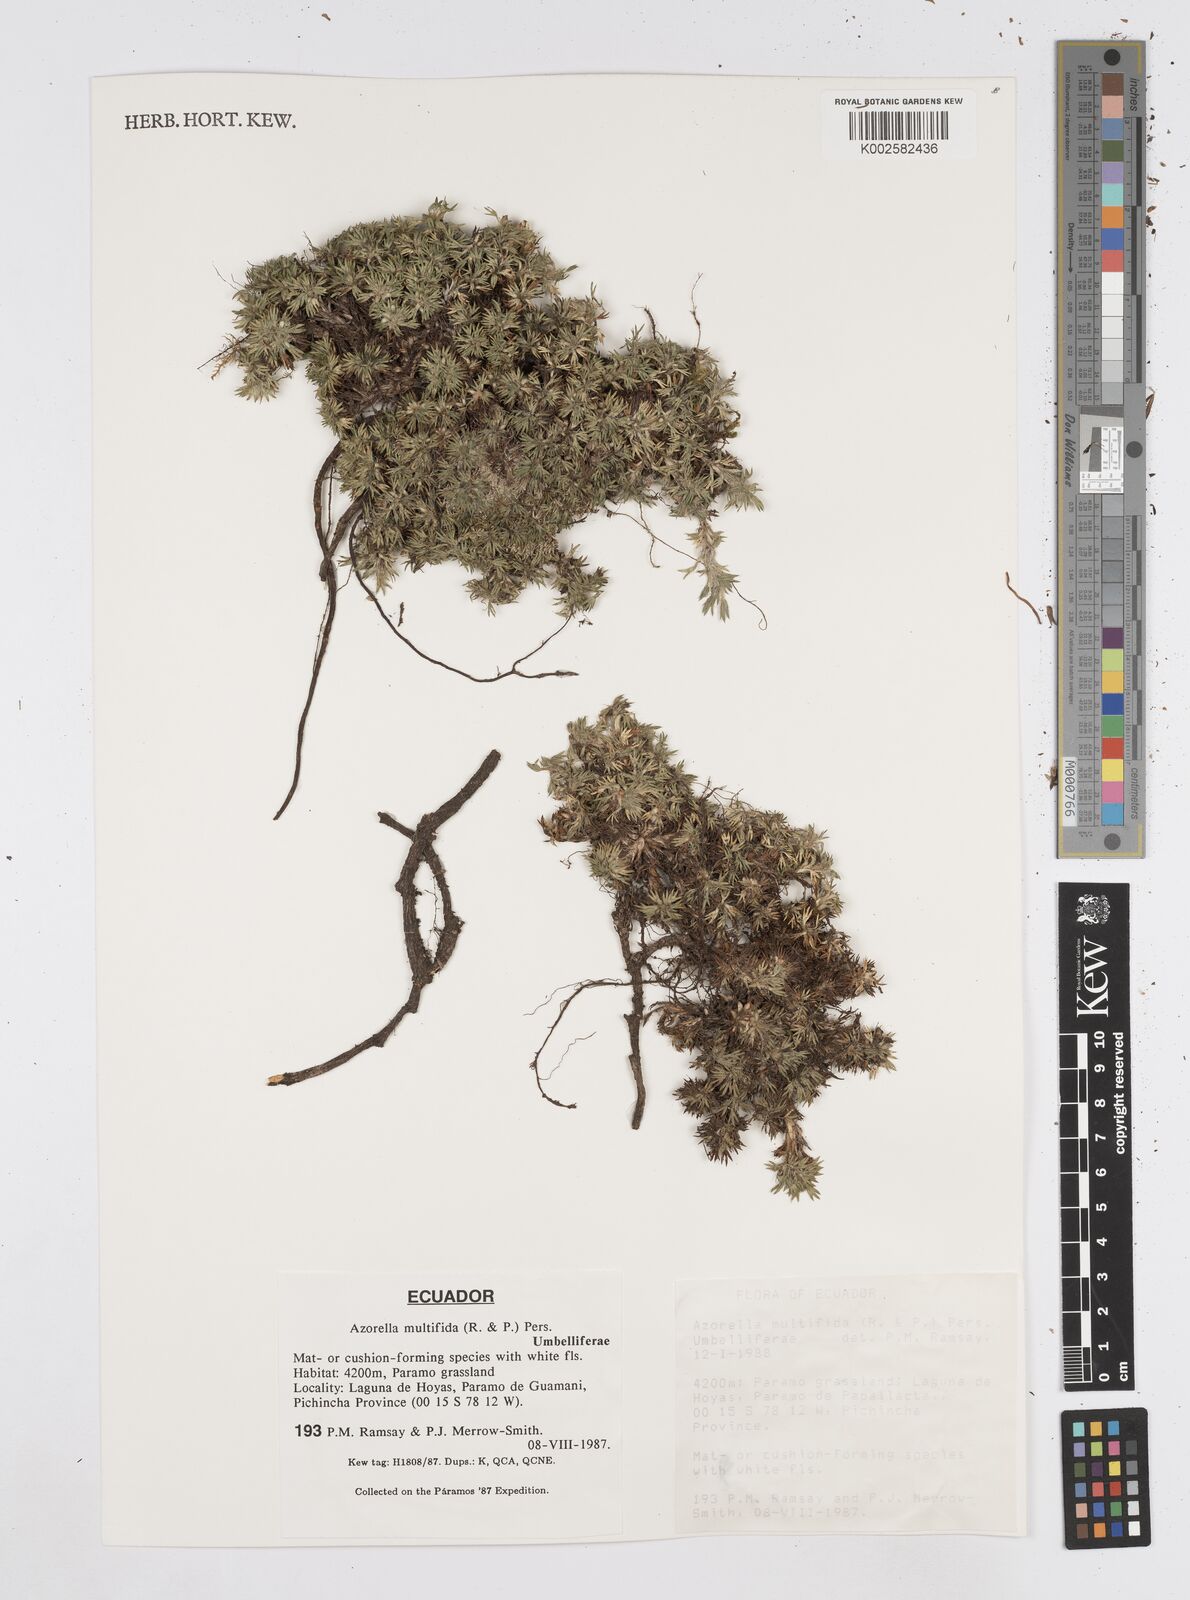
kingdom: Plantae
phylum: Tracheophyta
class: Magnoliopsida
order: Apiales
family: Apiaceae
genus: Azorella
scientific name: Azorella multifida
